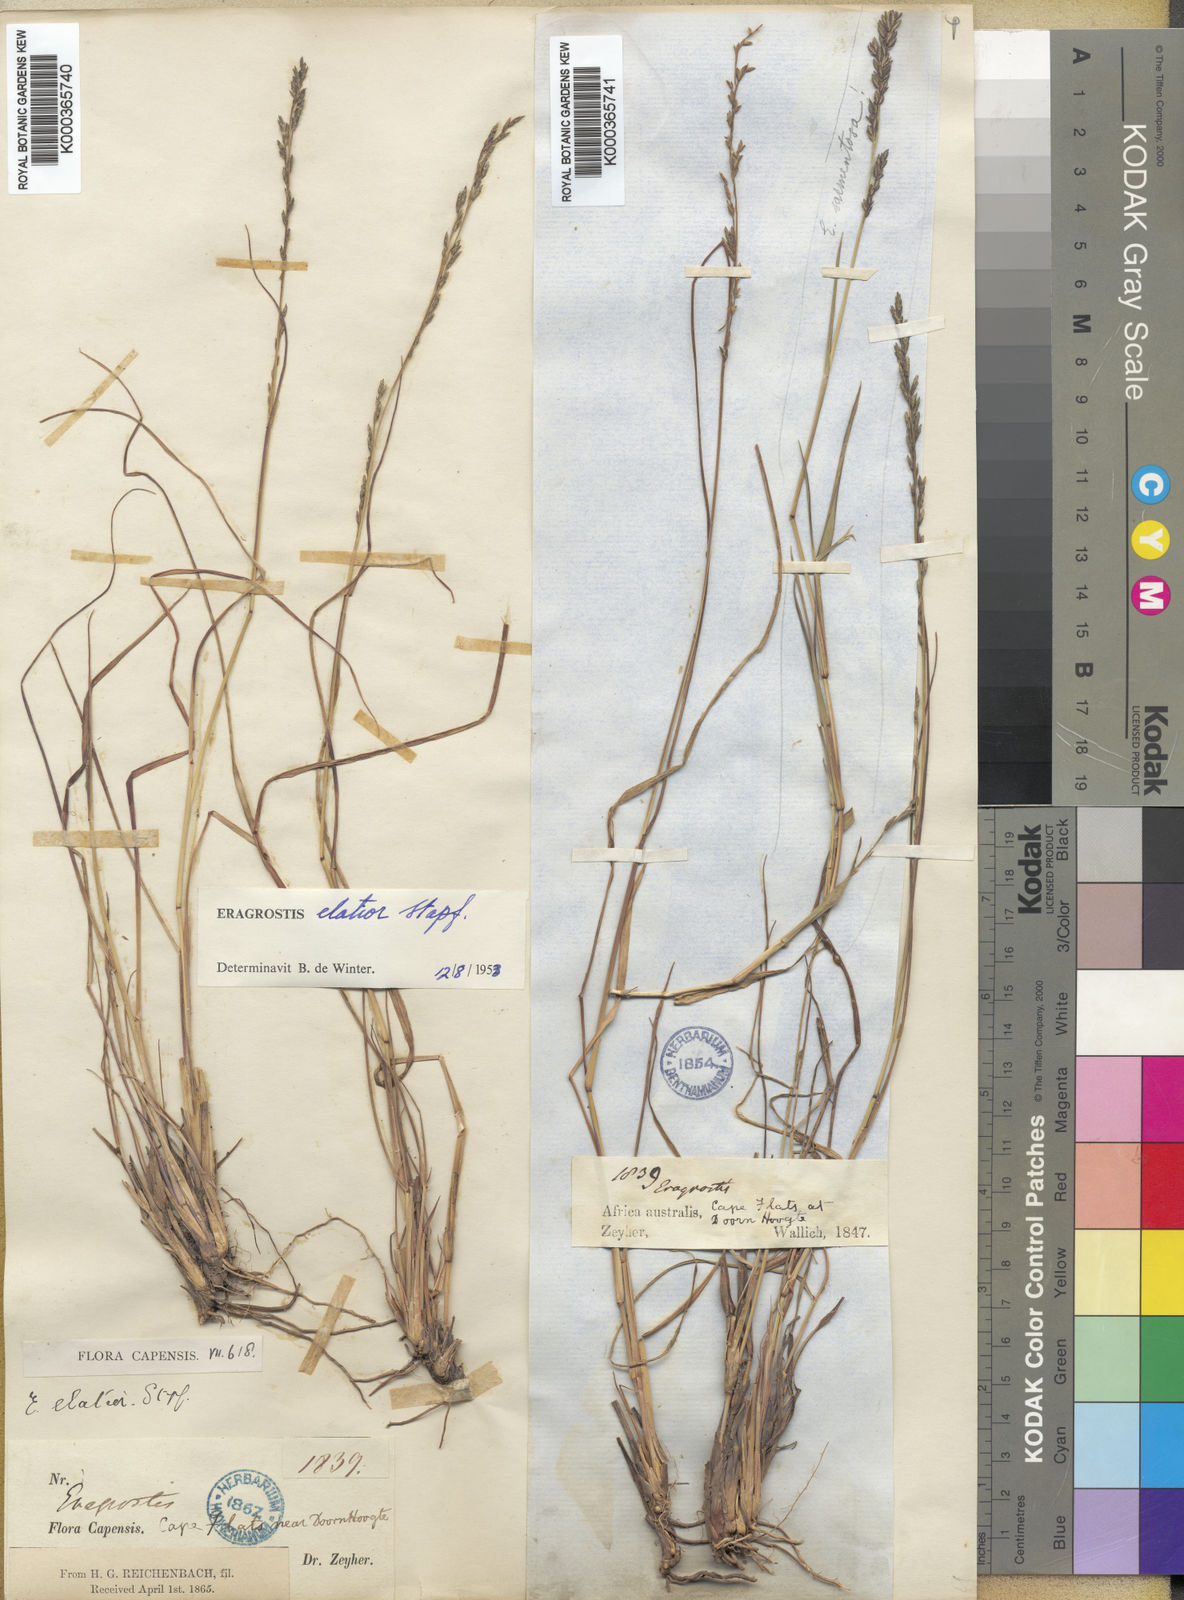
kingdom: Plantae
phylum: Tracheophyta
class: Liliopsida
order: Poales
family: Poaceae
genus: Eragrostis
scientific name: Eragrostis elatior
